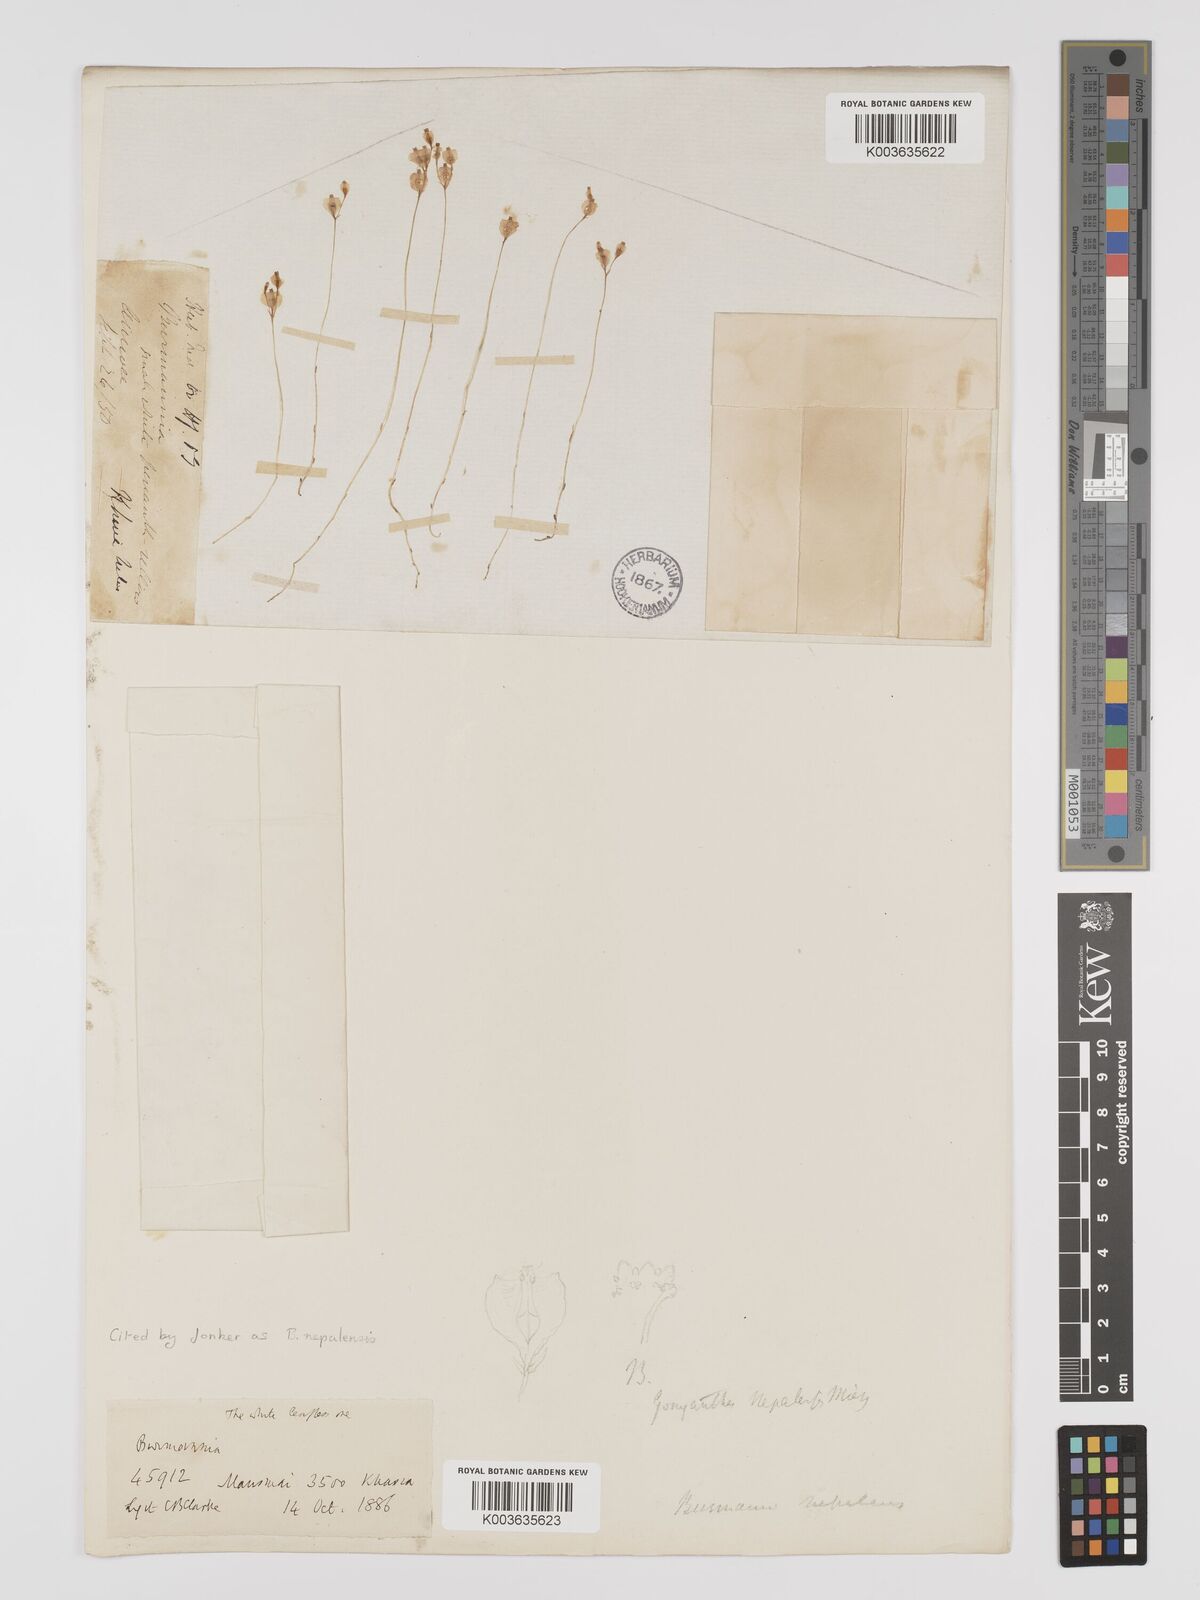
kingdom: Plantae
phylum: Tracheophyta
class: Liliopsida
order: Dioscoreales
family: Burmanniaceae
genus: Burmannia
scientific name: Burmannia nepalensis
